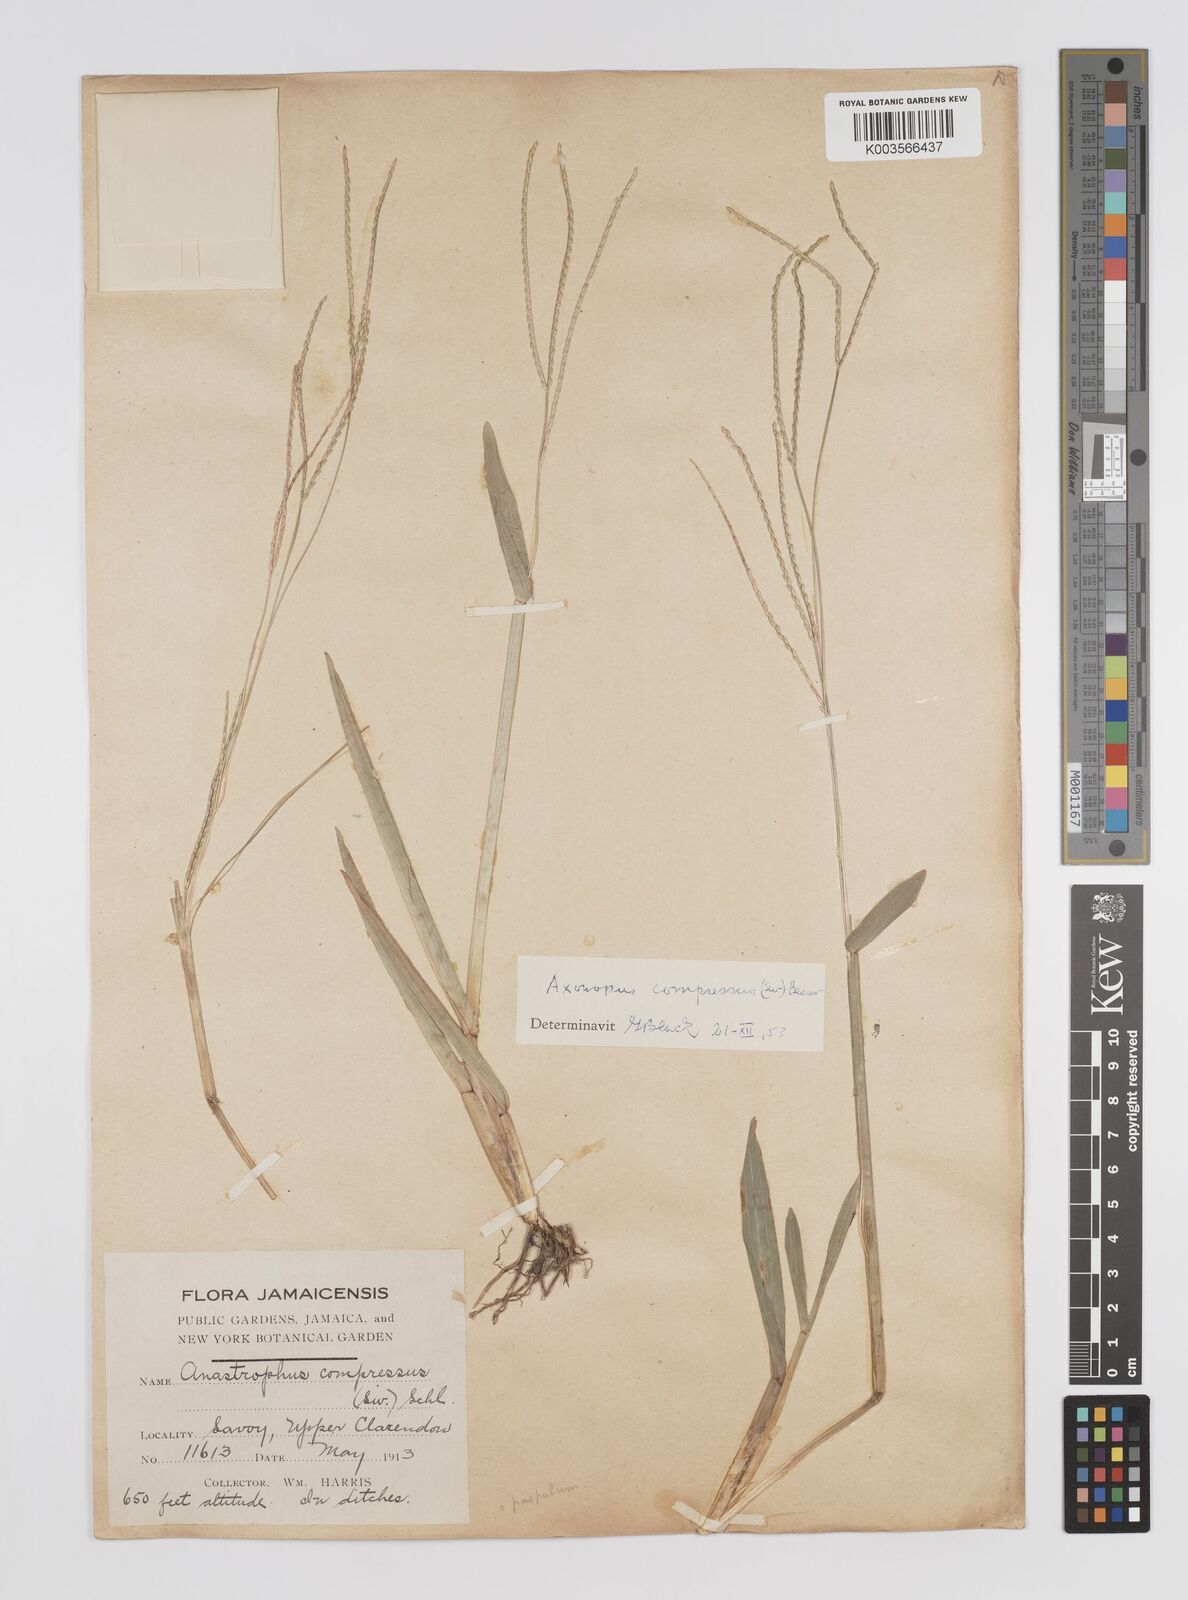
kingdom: Plantae
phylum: Tracheophyta
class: Liliopsida
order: Poales
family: Poaceae
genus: Axonopus
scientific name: Axonopus compressus
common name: American carpet grass
